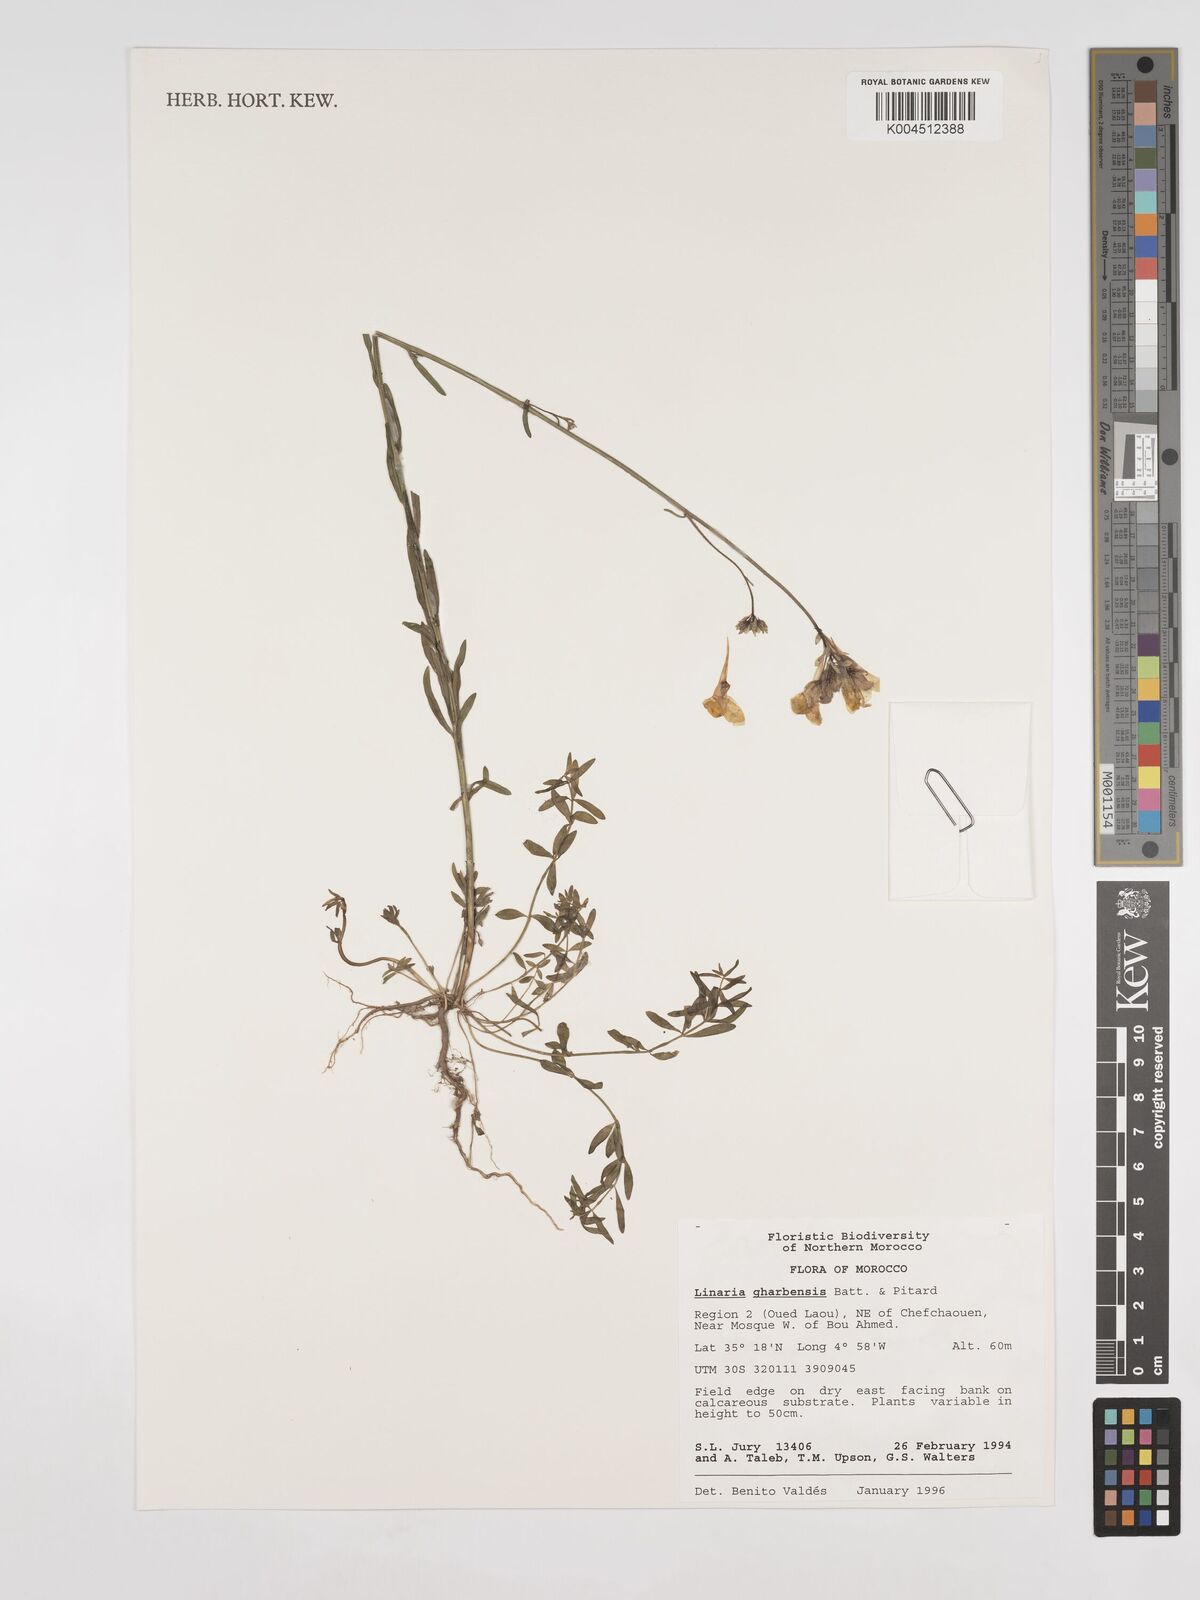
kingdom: Plantae
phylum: Tracheophyta
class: Magnoliopsida
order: Lamiales
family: Plantaginaceae
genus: Linaria
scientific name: Linaria gharbensis
